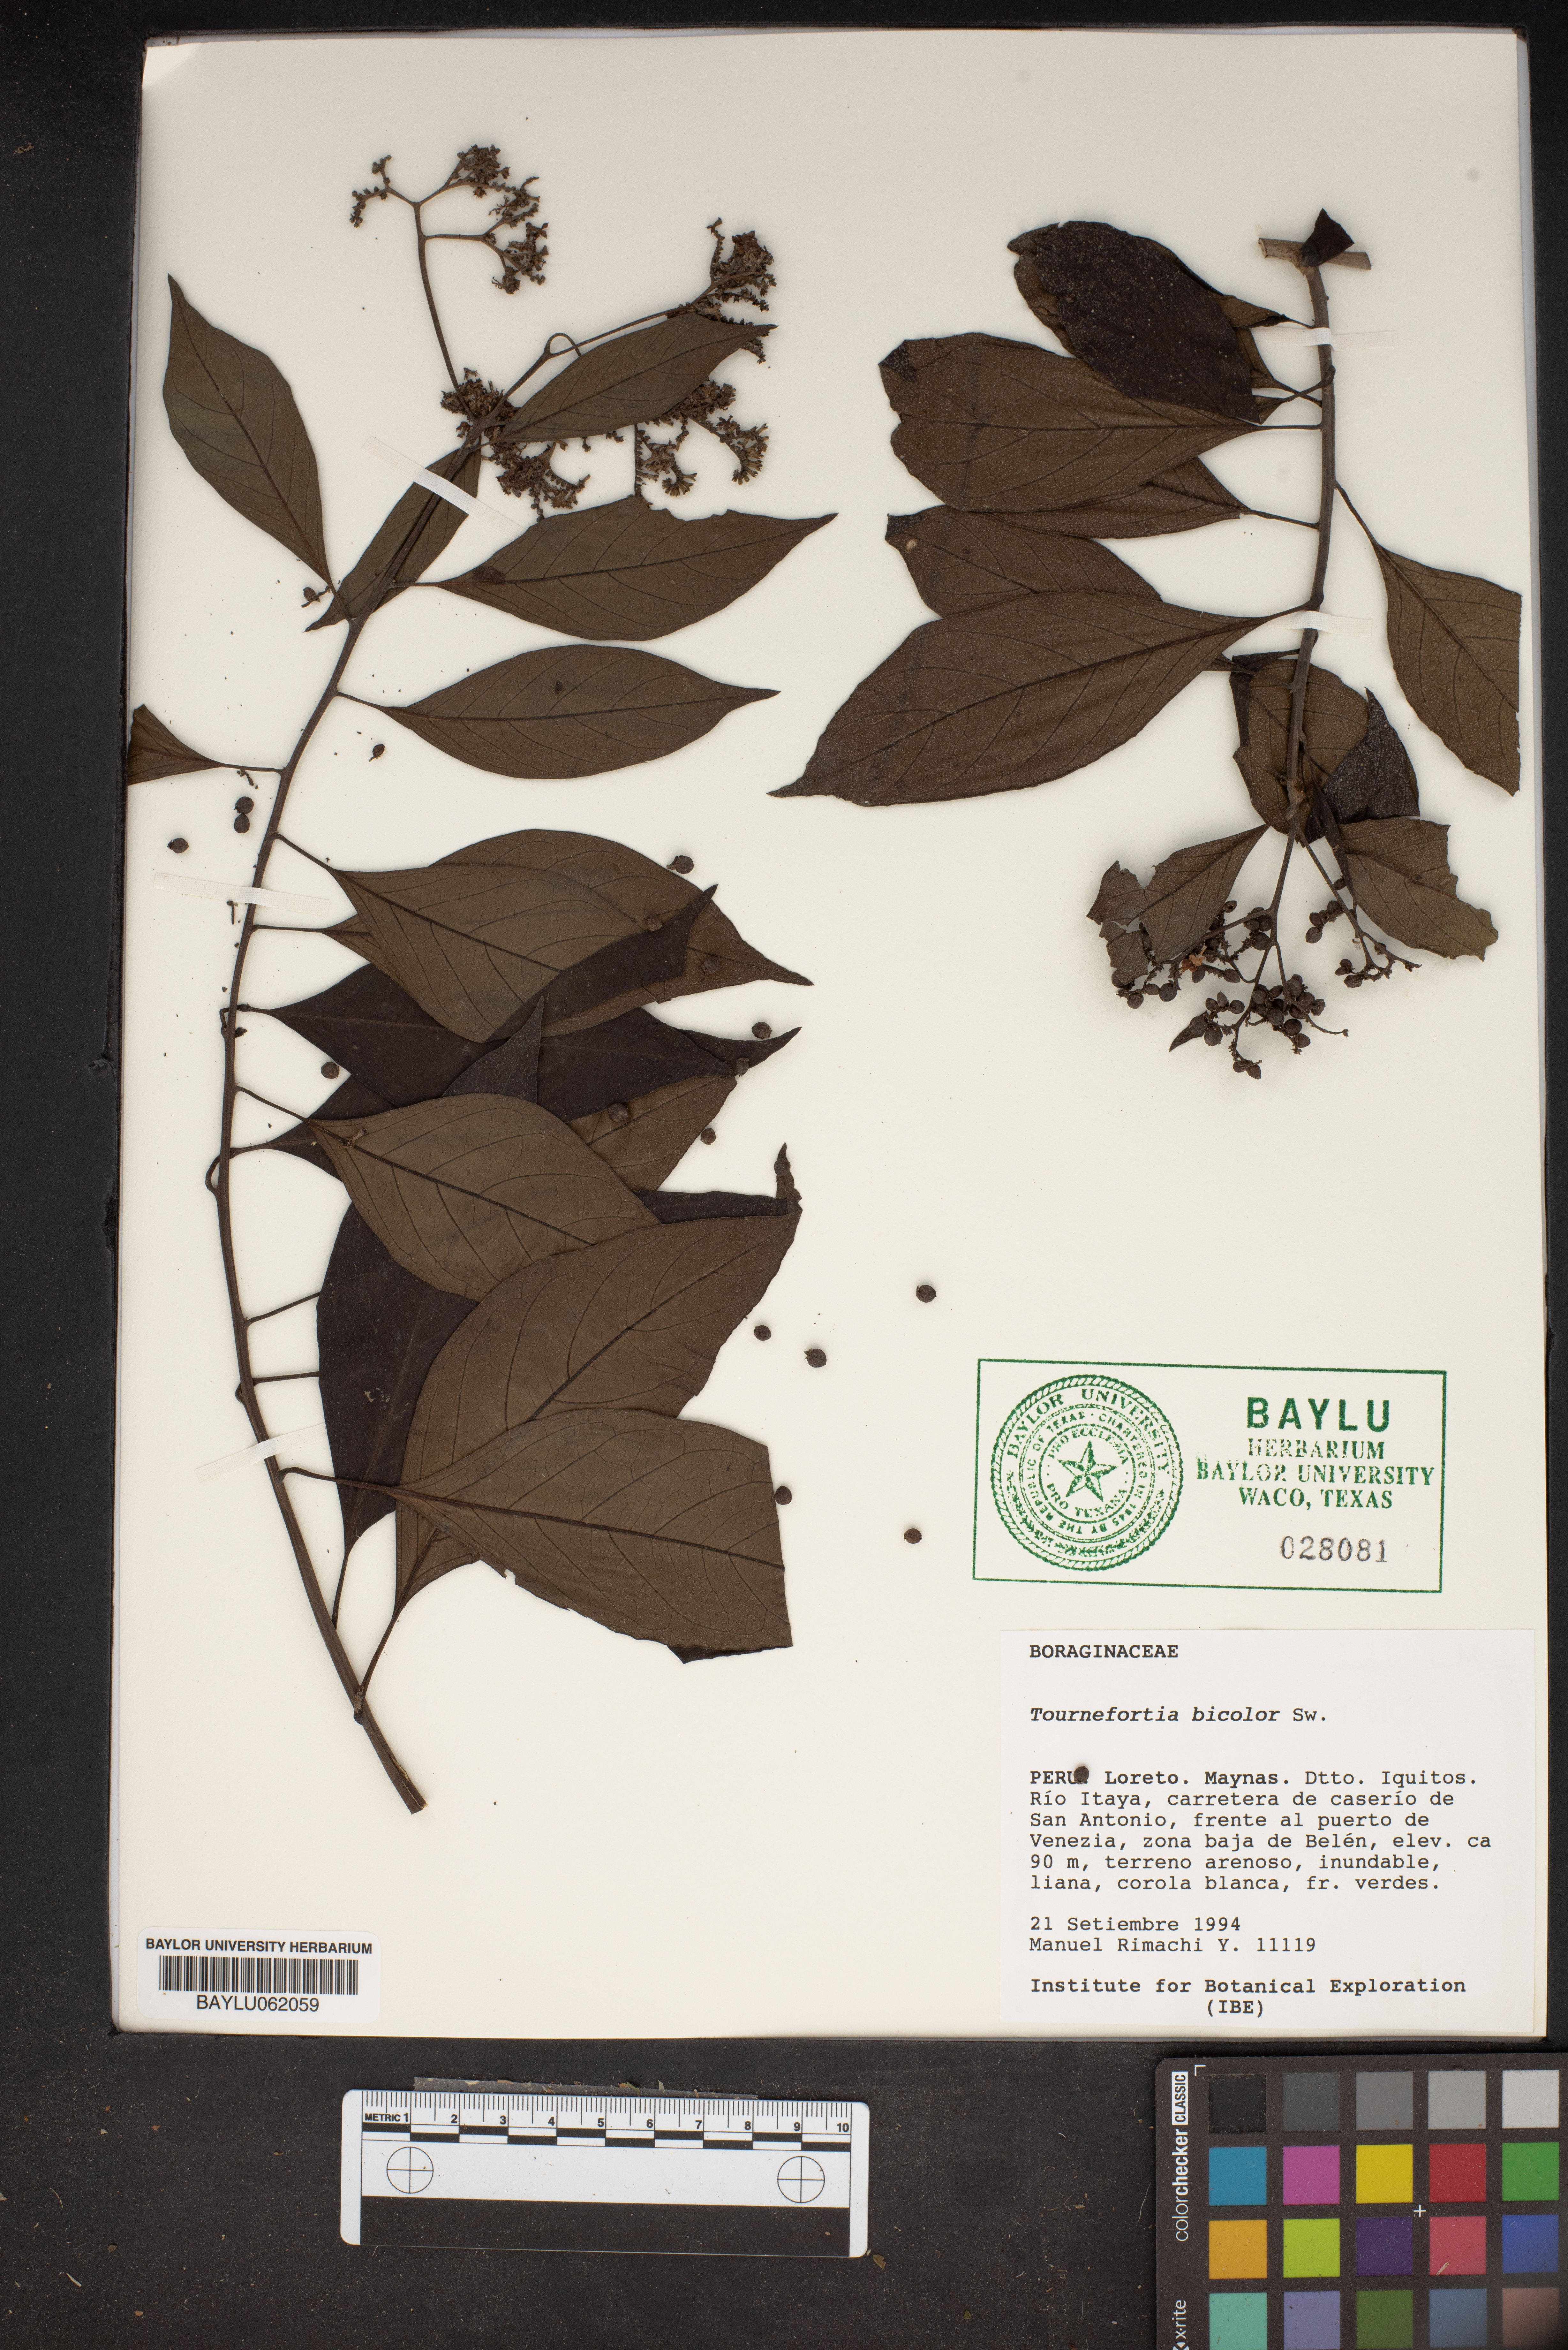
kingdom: Plantae
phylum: Tracheophyta
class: Magnoliopsida
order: Boraginales
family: Heliotropiaceae
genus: Heliotropium
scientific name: Heliotropium verdcourtii
